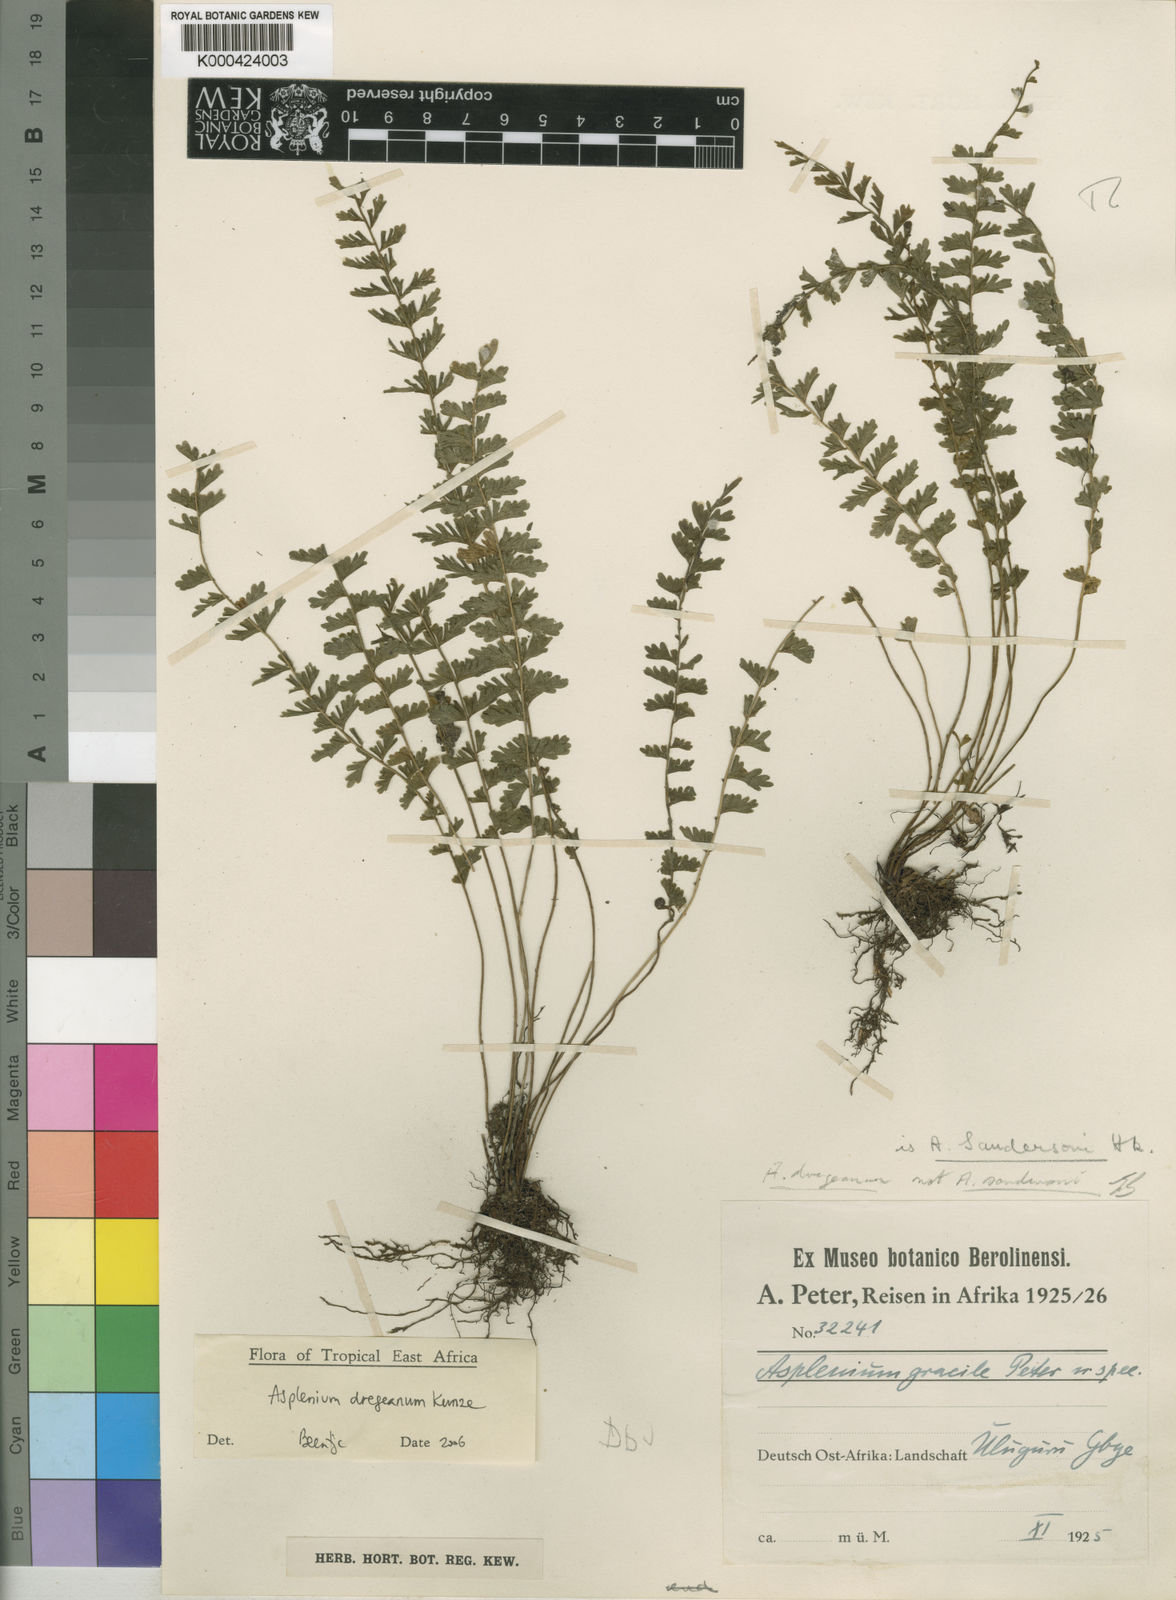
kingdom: Plantae
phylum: Tracheophyta
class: Polypodiopsida
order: Polypodiales
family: Aspleniaceae
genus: Asplenium
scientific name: Asplenium dregeanum
